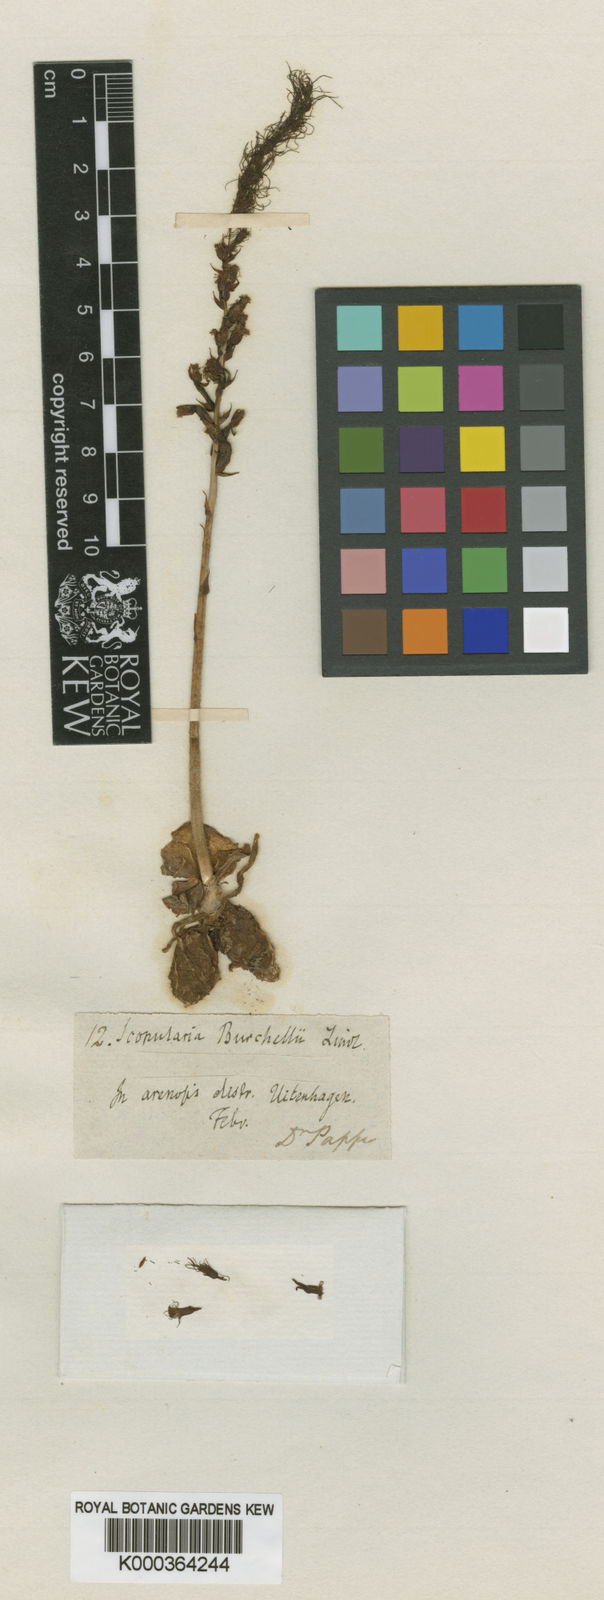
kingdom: Plantae
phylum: Tracheophyta
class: Liliopsida
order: Asparagales
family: Orchidaceae
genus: Holothrix
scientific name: Holothrix burchellii
